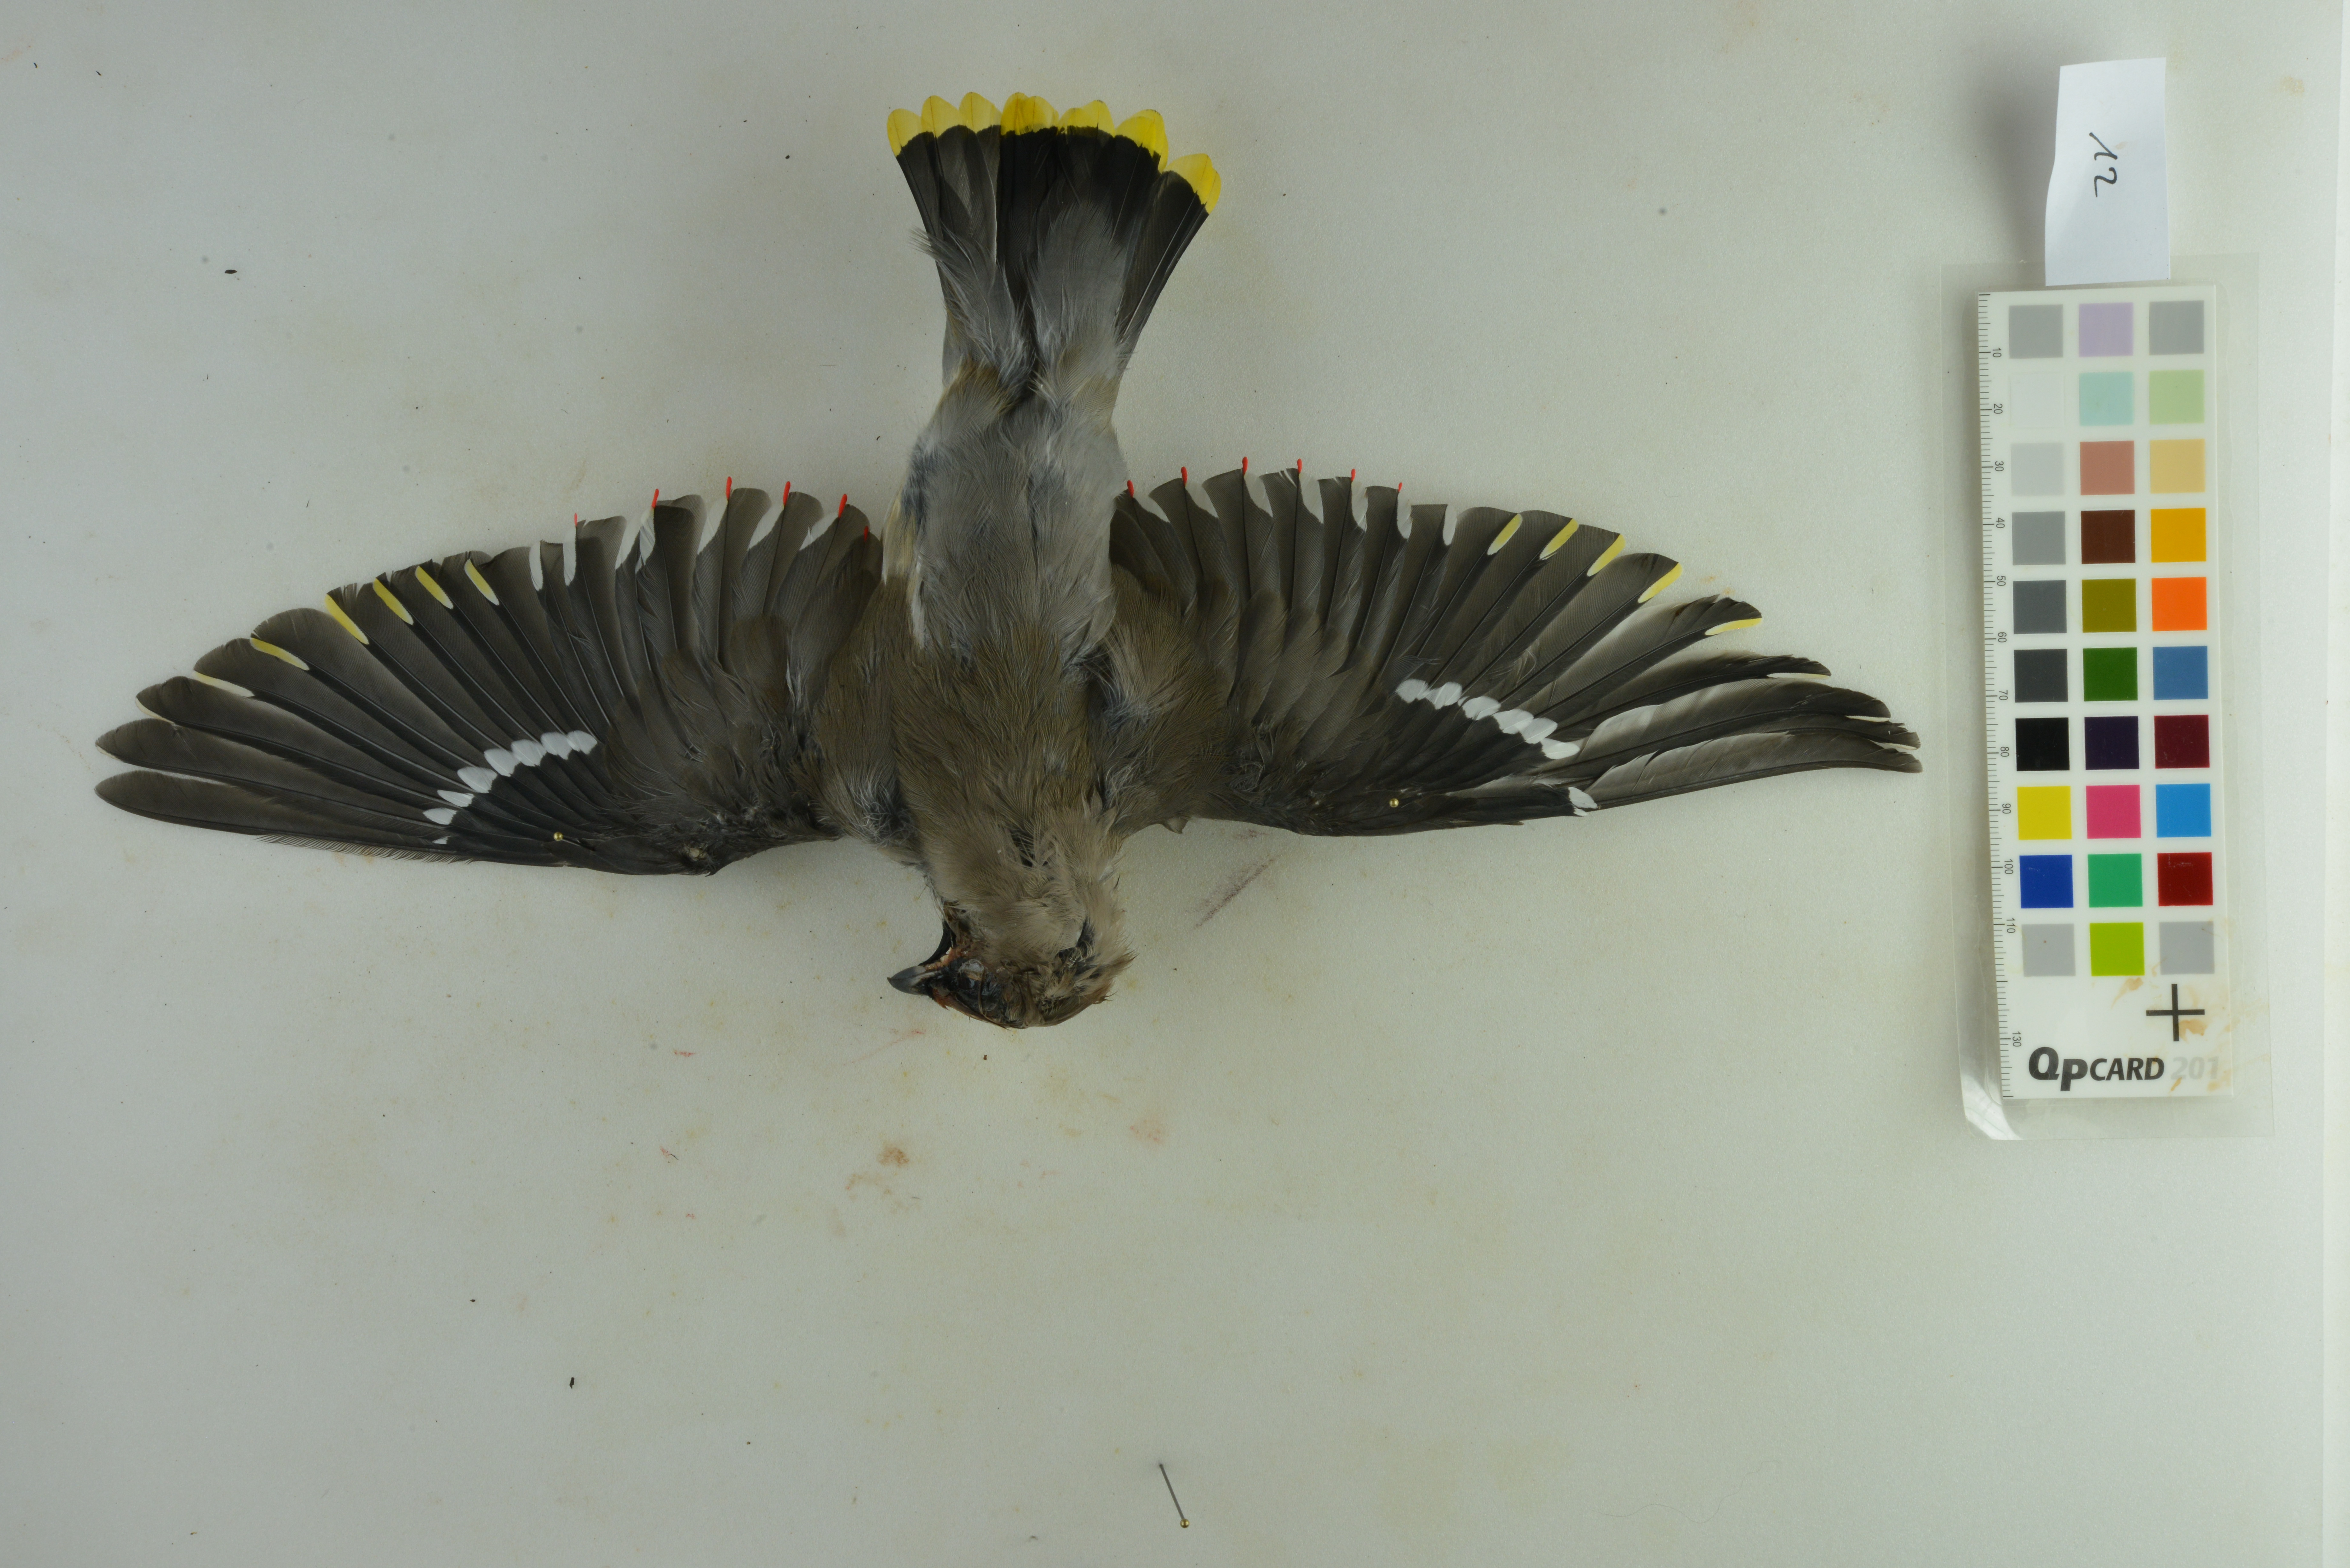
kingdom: Animalia
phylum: Chordata
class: Aves
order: Passeriformes
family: Bombycillidae
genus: Bombycilla
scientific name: Bombycilla garrulus
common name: Bohemian waxwing
